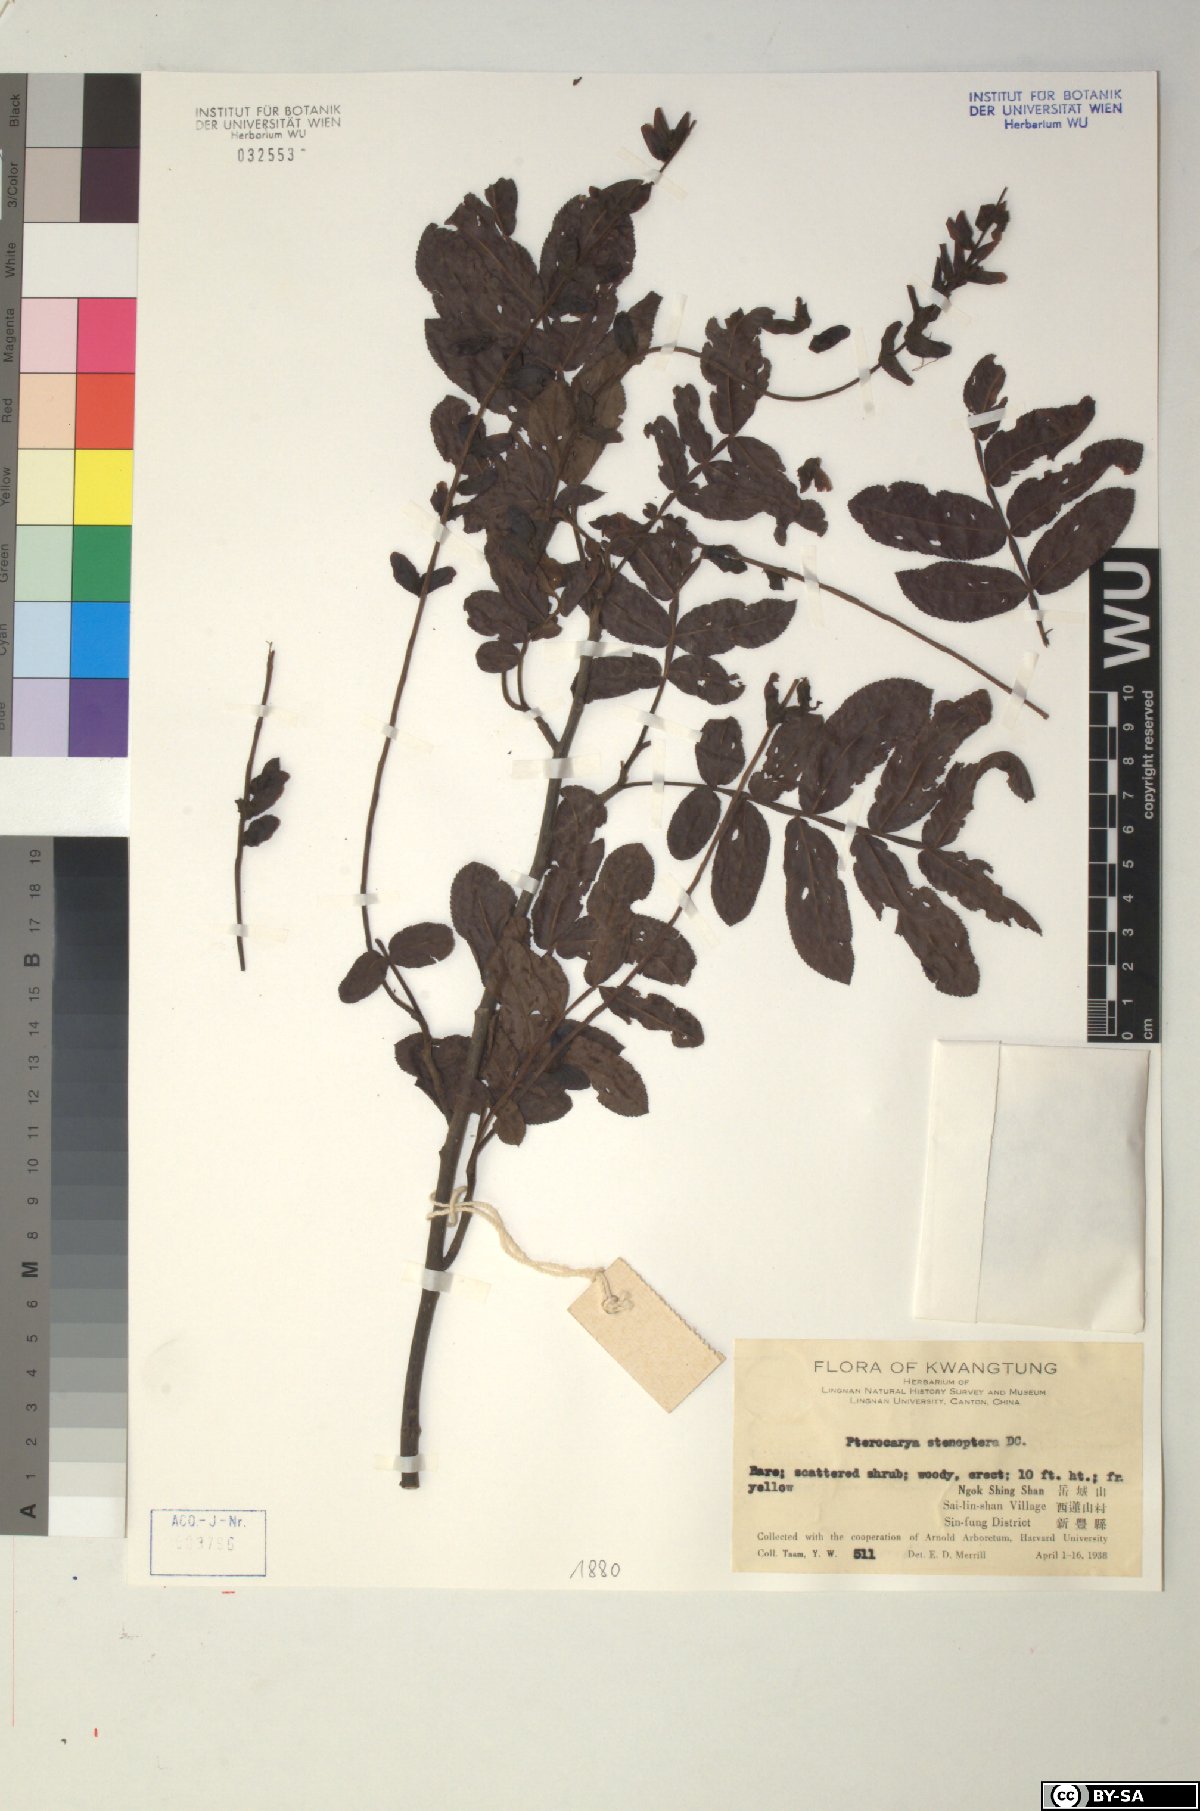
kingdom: Plantae
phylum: Tracheophyta
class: Magnoliopsida
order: Fagales
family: Juglandaceae
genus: Pterocarya
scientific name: Pterocarya stenoptera
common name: Chinese wingnut
